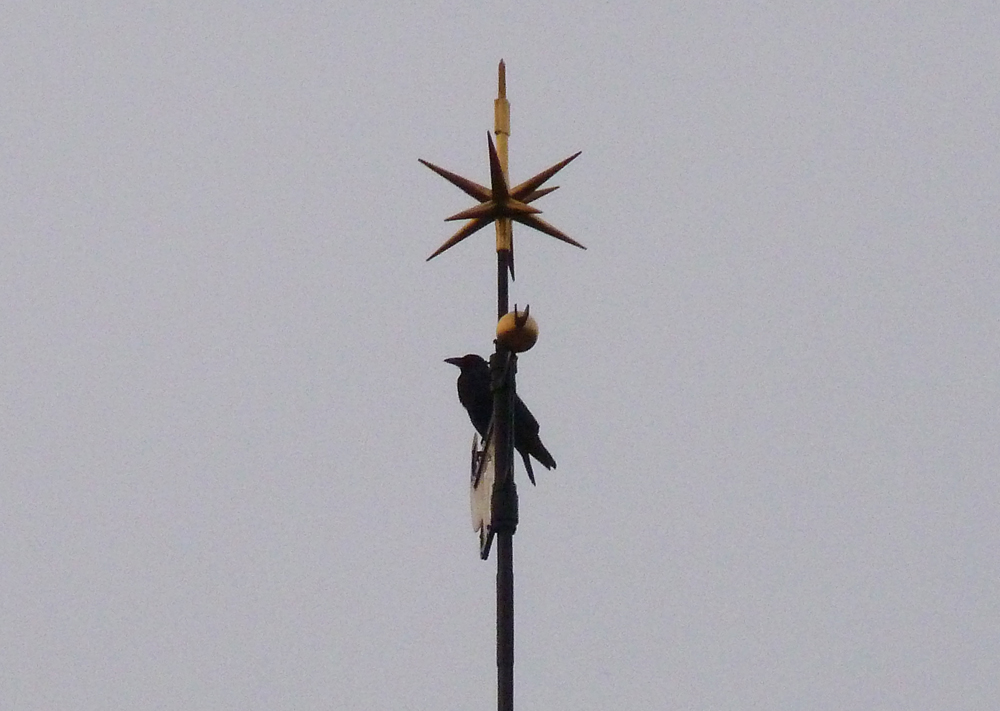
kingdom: Animalia
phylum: Chordata
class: Aves
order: Passeriformes
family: Corvidae
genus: Corvus
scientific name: Corvus corone
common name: Carrion crow
